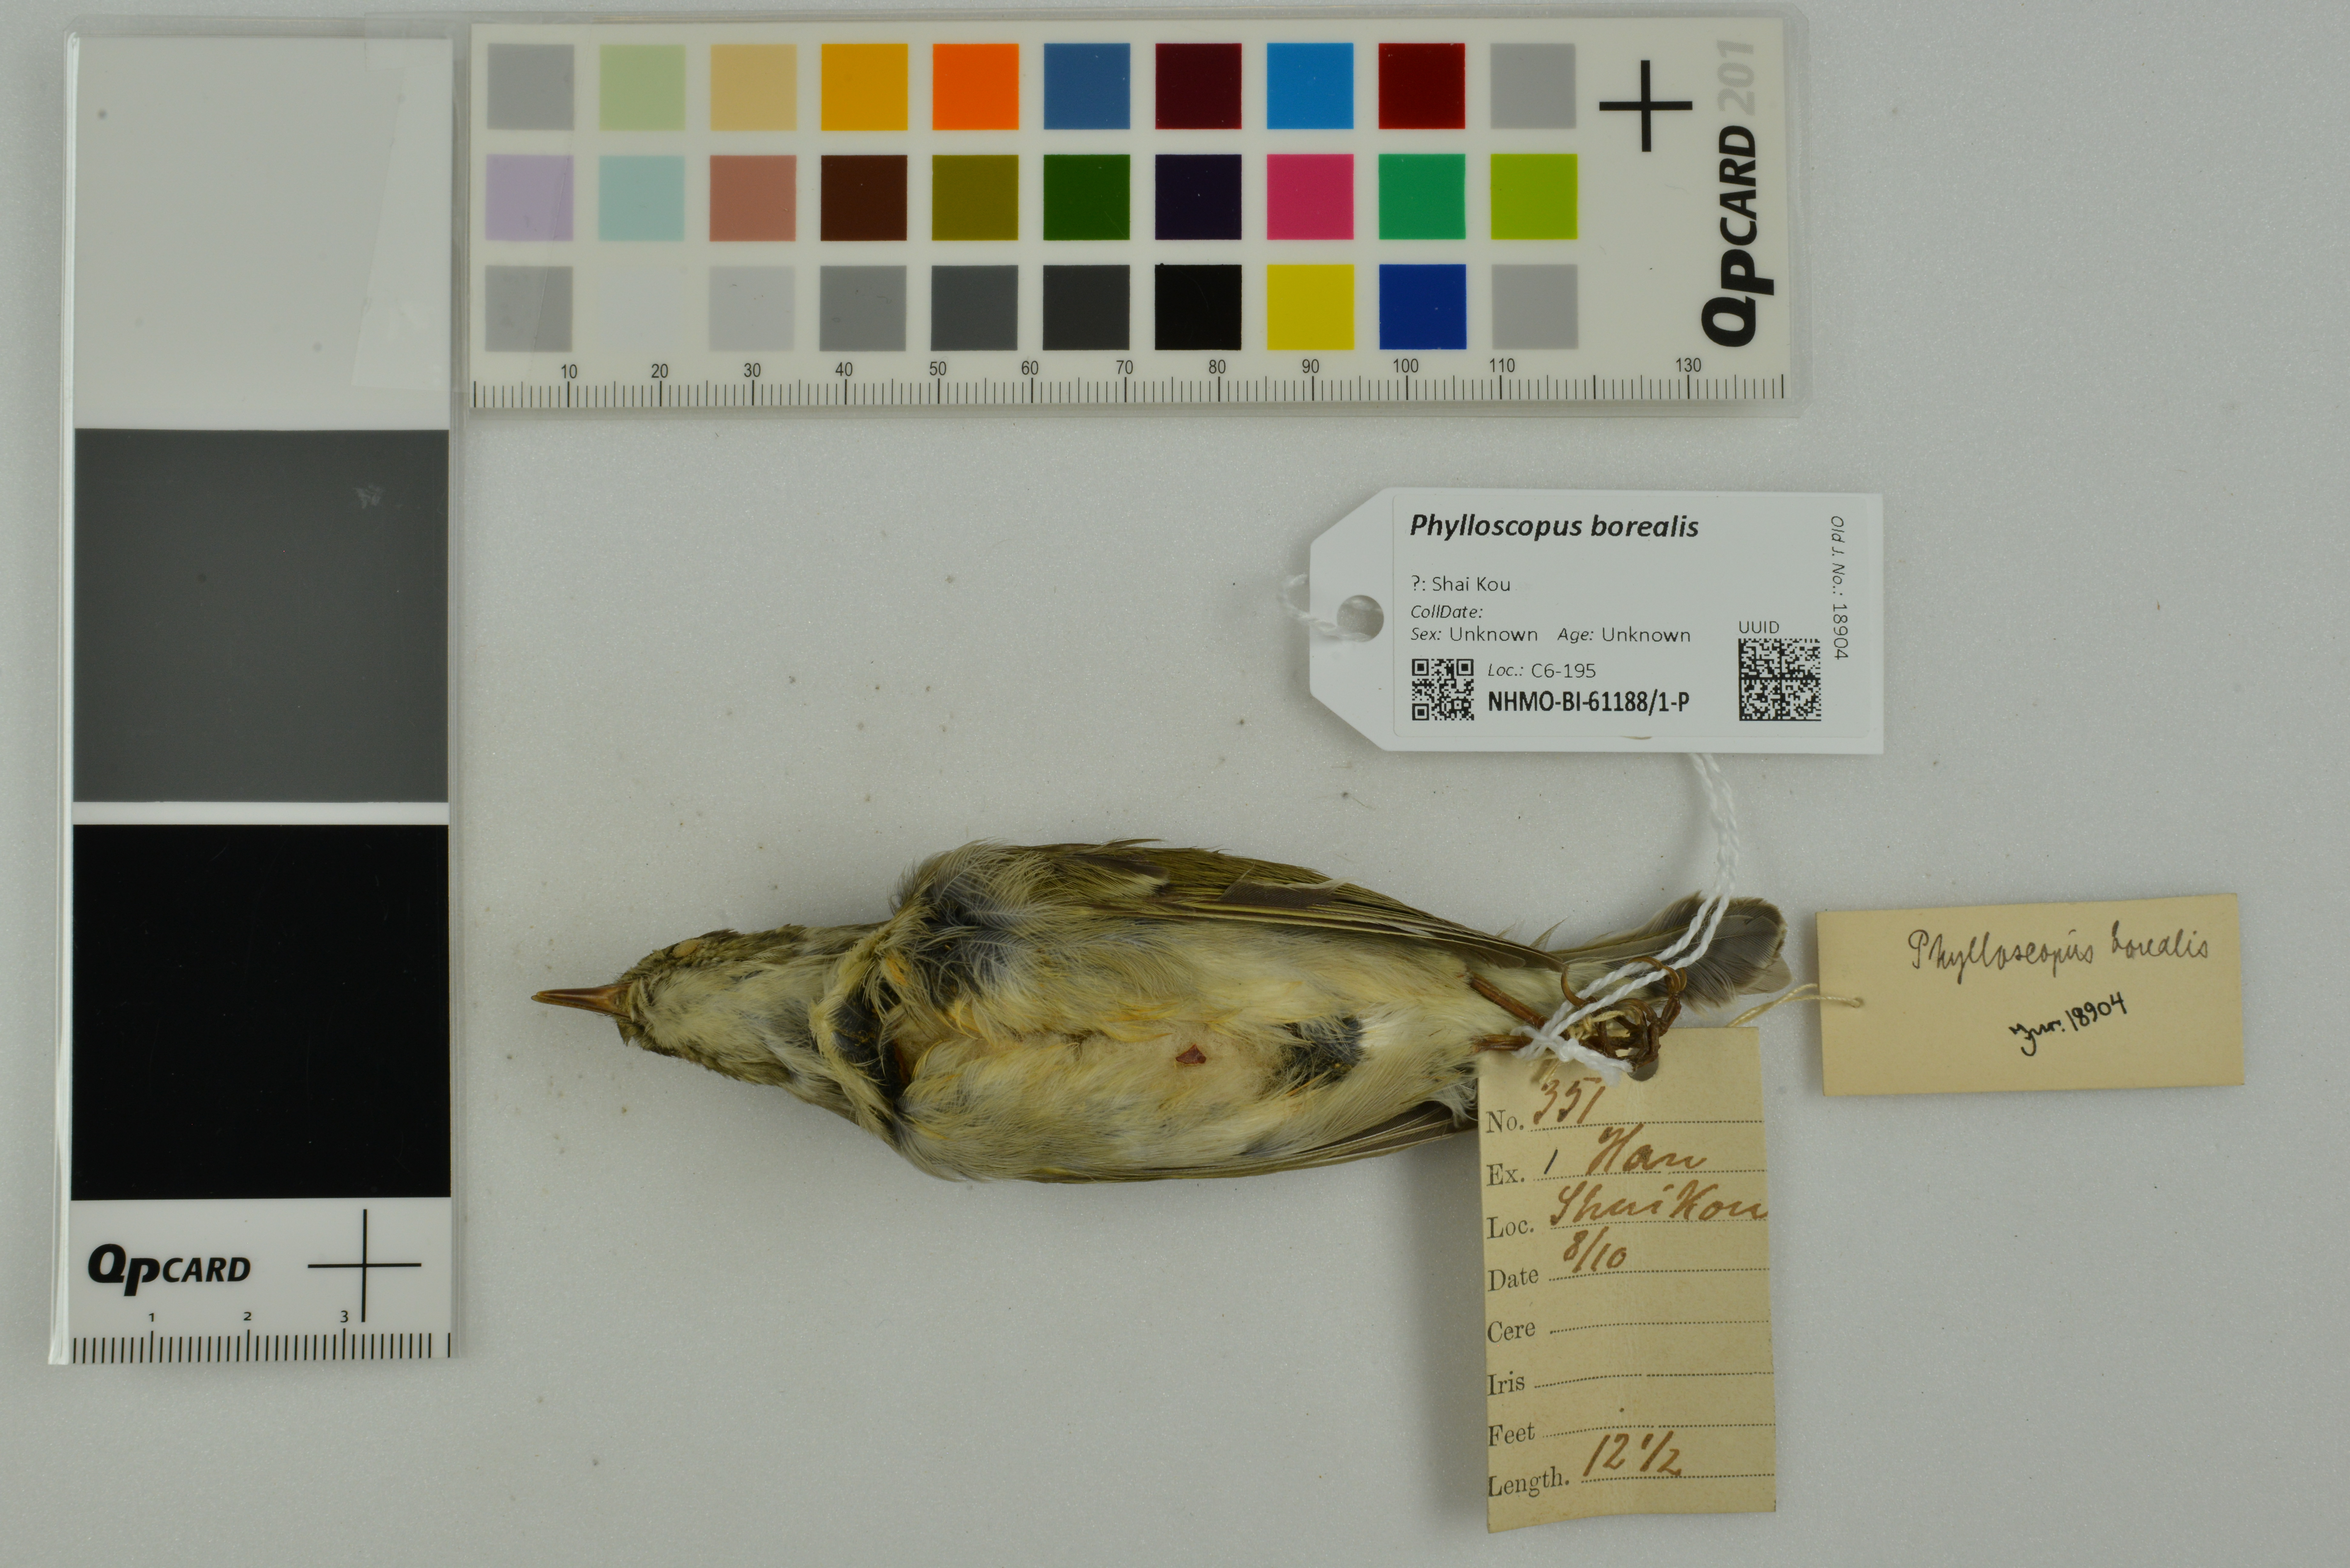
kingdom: Animalia
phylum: Chordata
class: Aves
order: Passeriformes
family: Phylloscopidae
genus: Phylloscopus
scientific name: Phylloscopus borealis
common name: Arctic warbler
